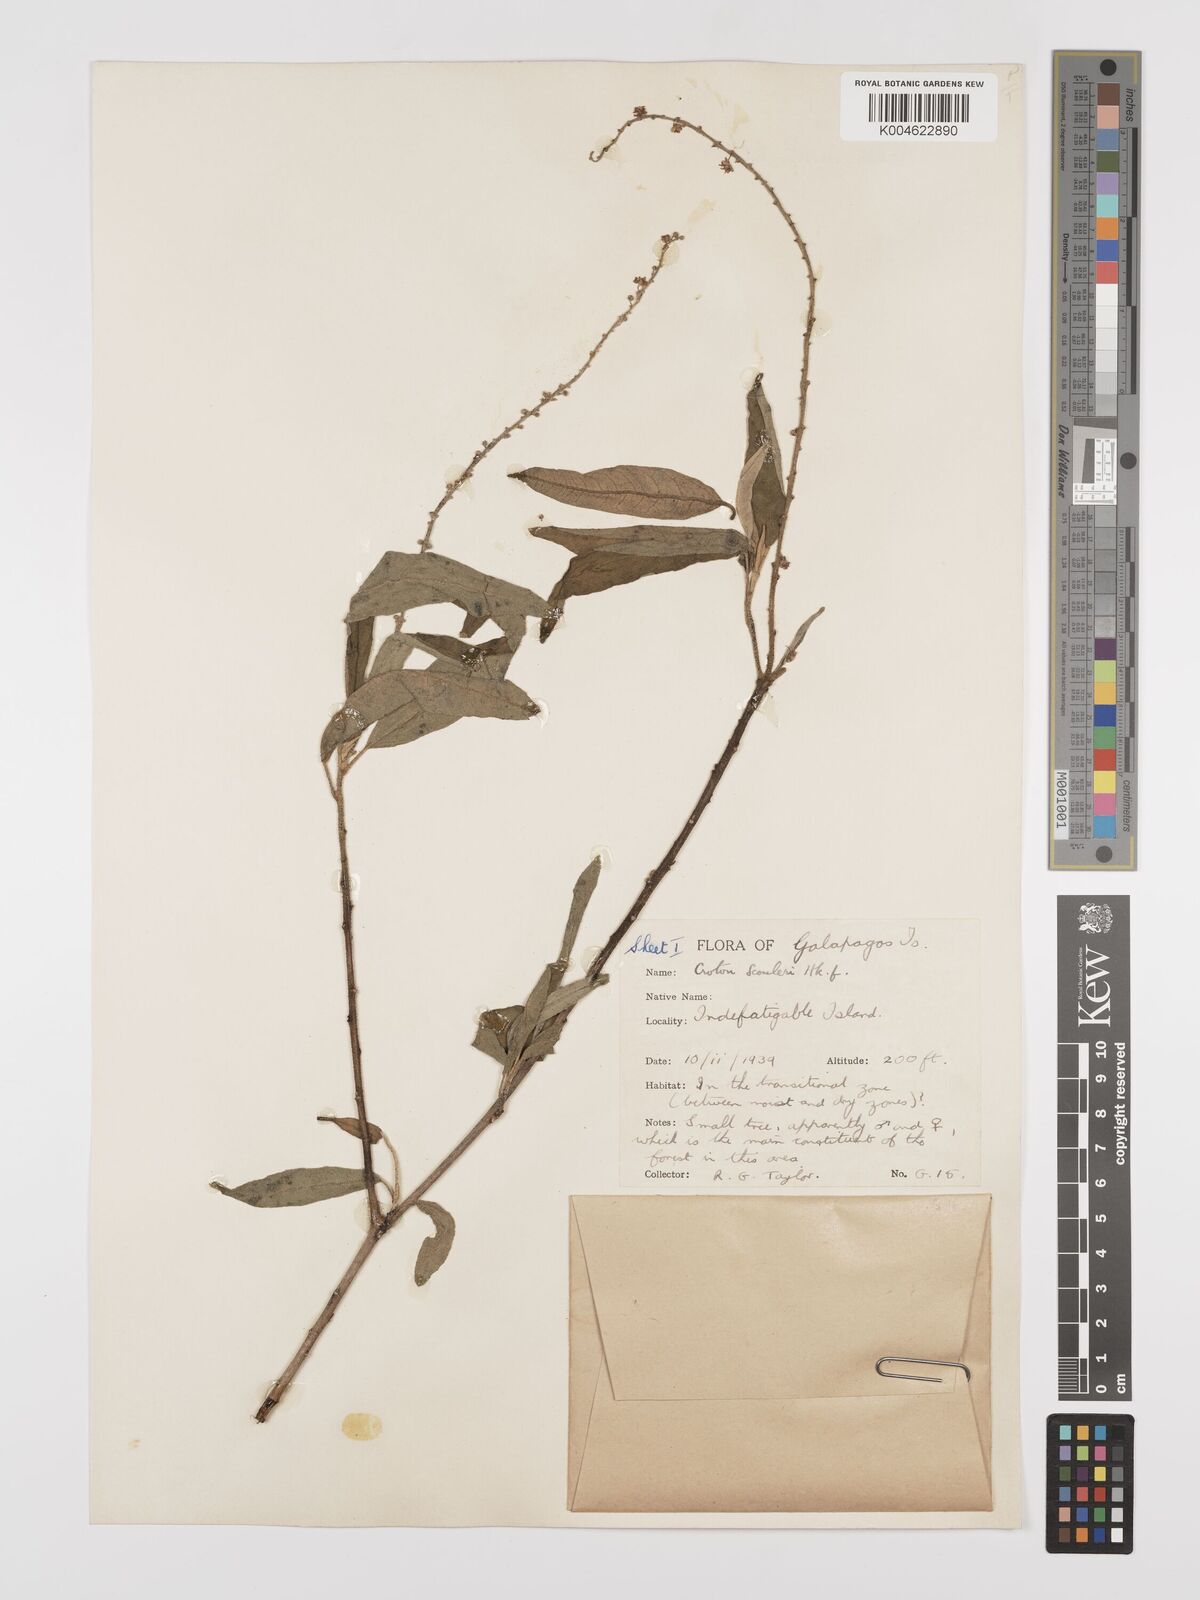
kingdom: Plantae
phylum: Tracheophyta
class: Magnoliopsida
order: Malpighiales
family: Euphorbiaceae
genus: Croton
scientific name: Croton scouleri
